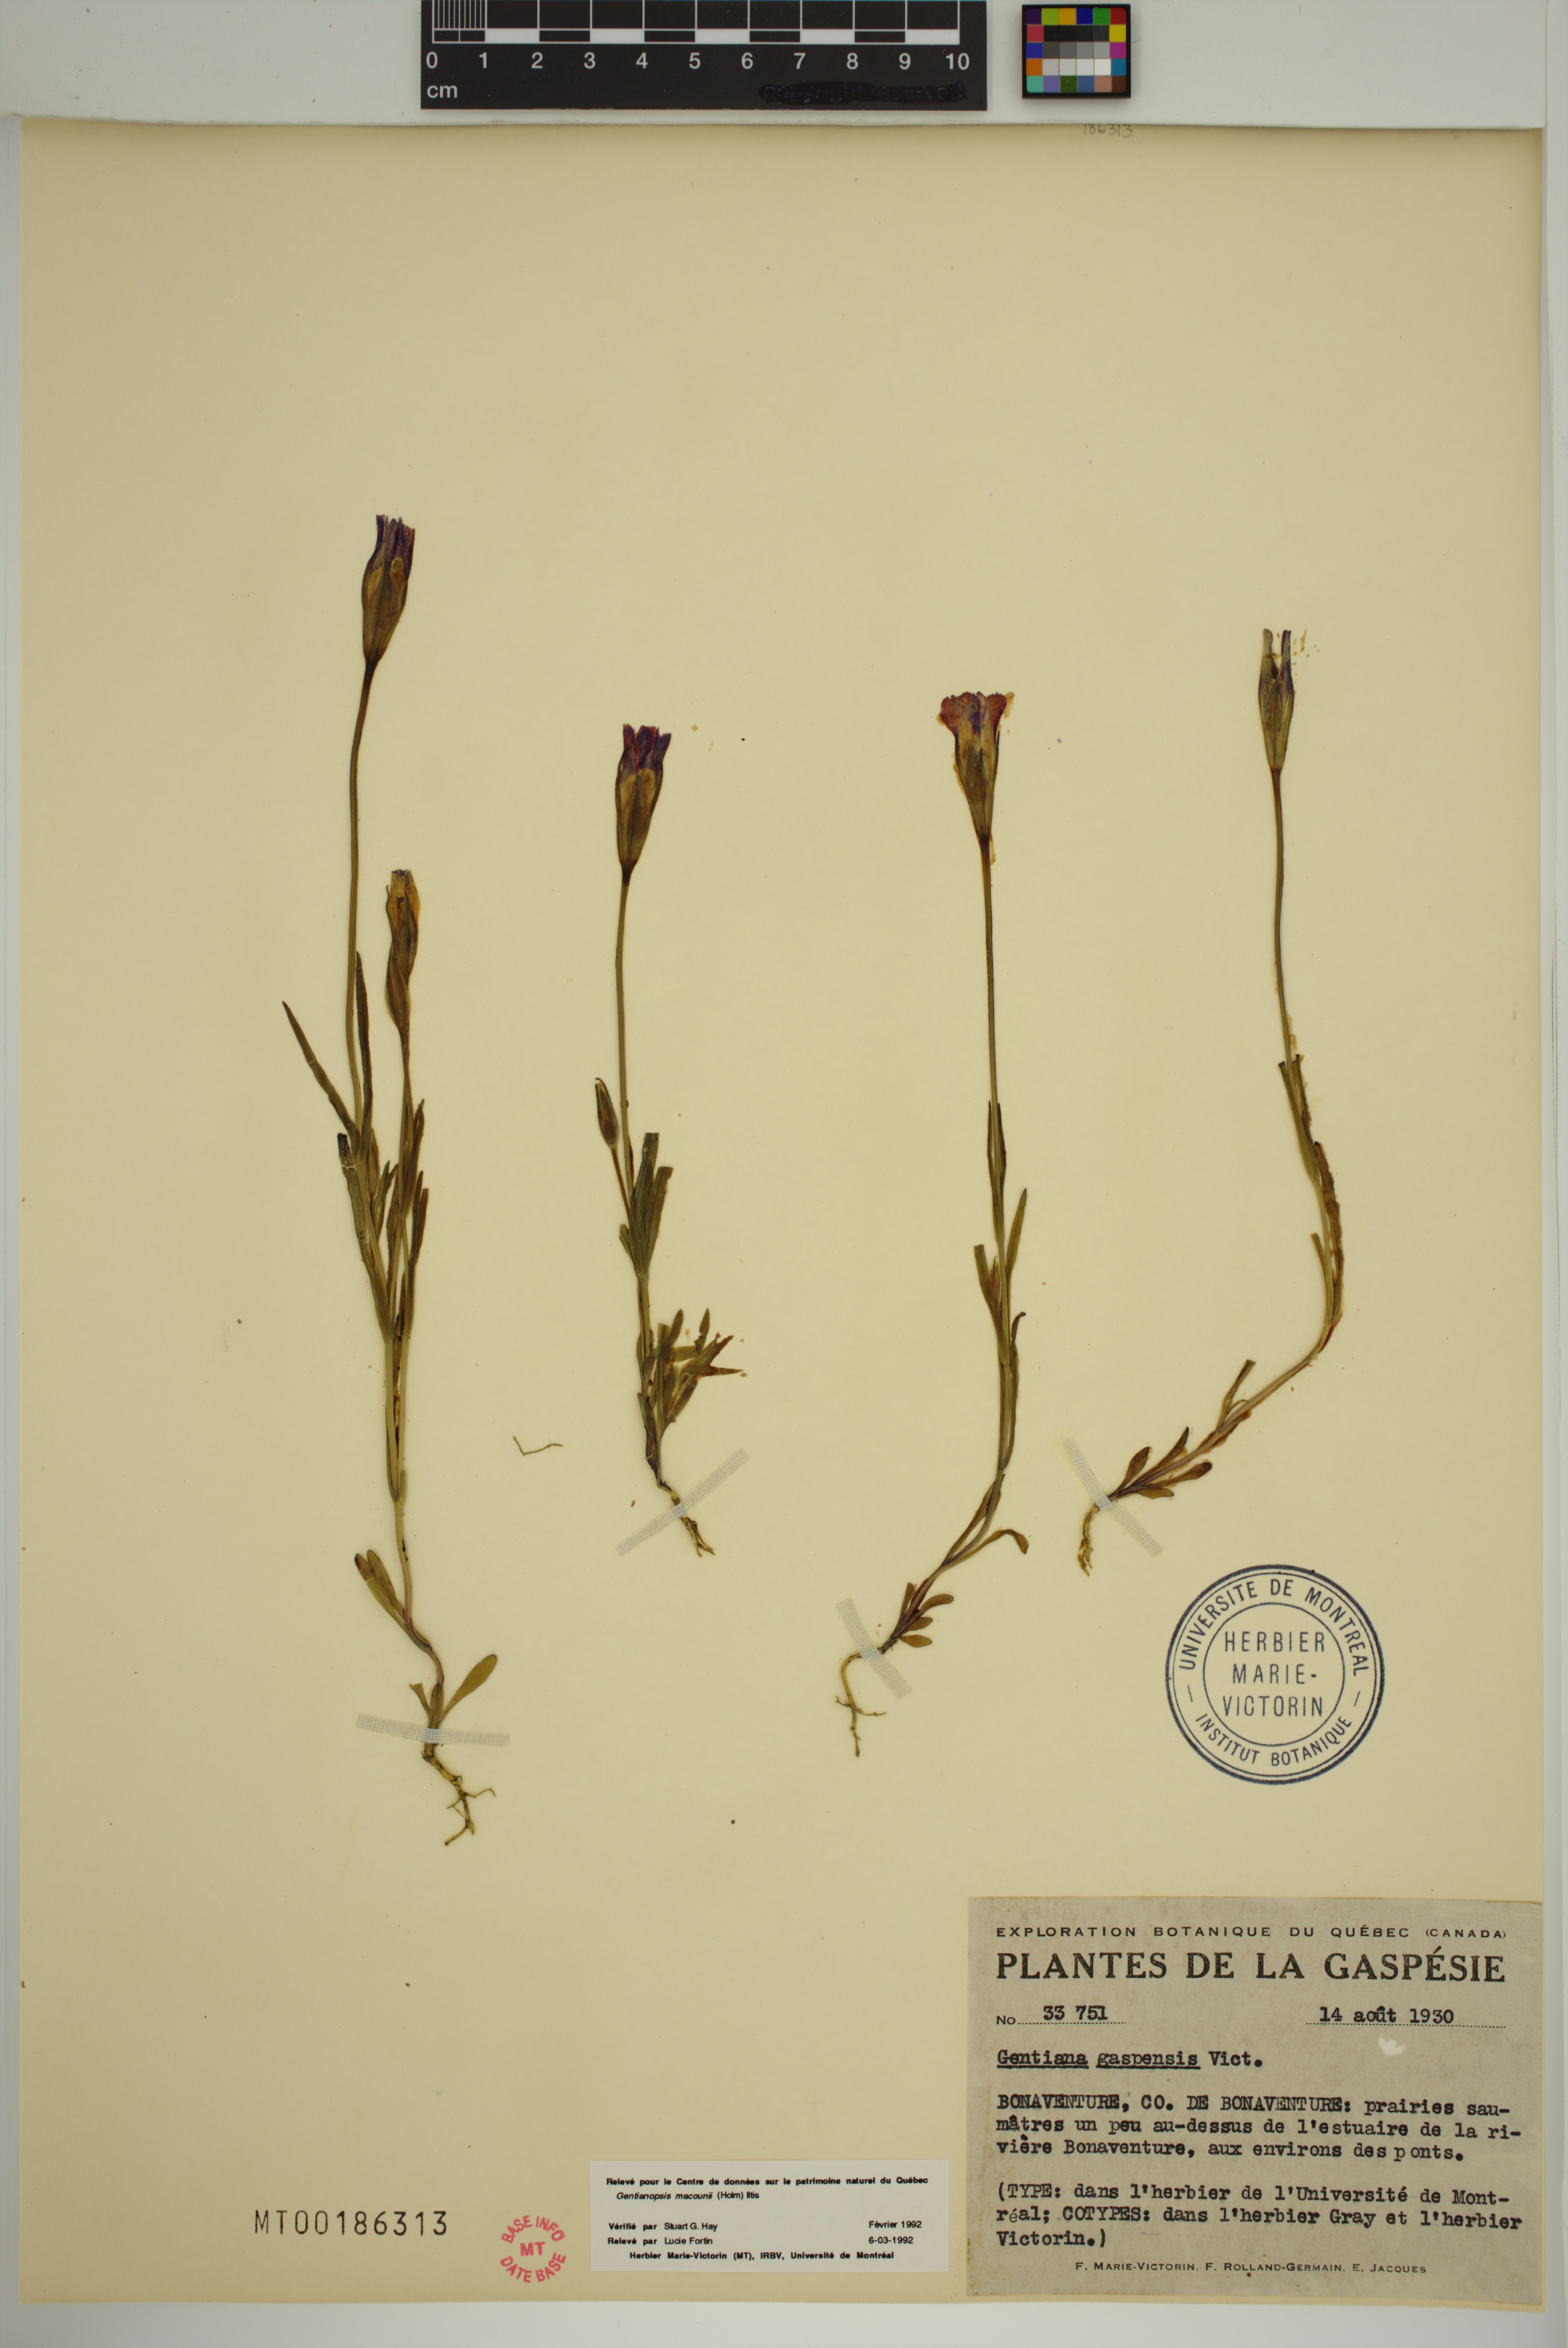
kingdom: Plantae
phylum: Tracheophyta
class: Magnoliopsida
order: Gentianales
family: Gentianaceae
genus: Gentianopsis
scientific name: Gentianopsis macounii
